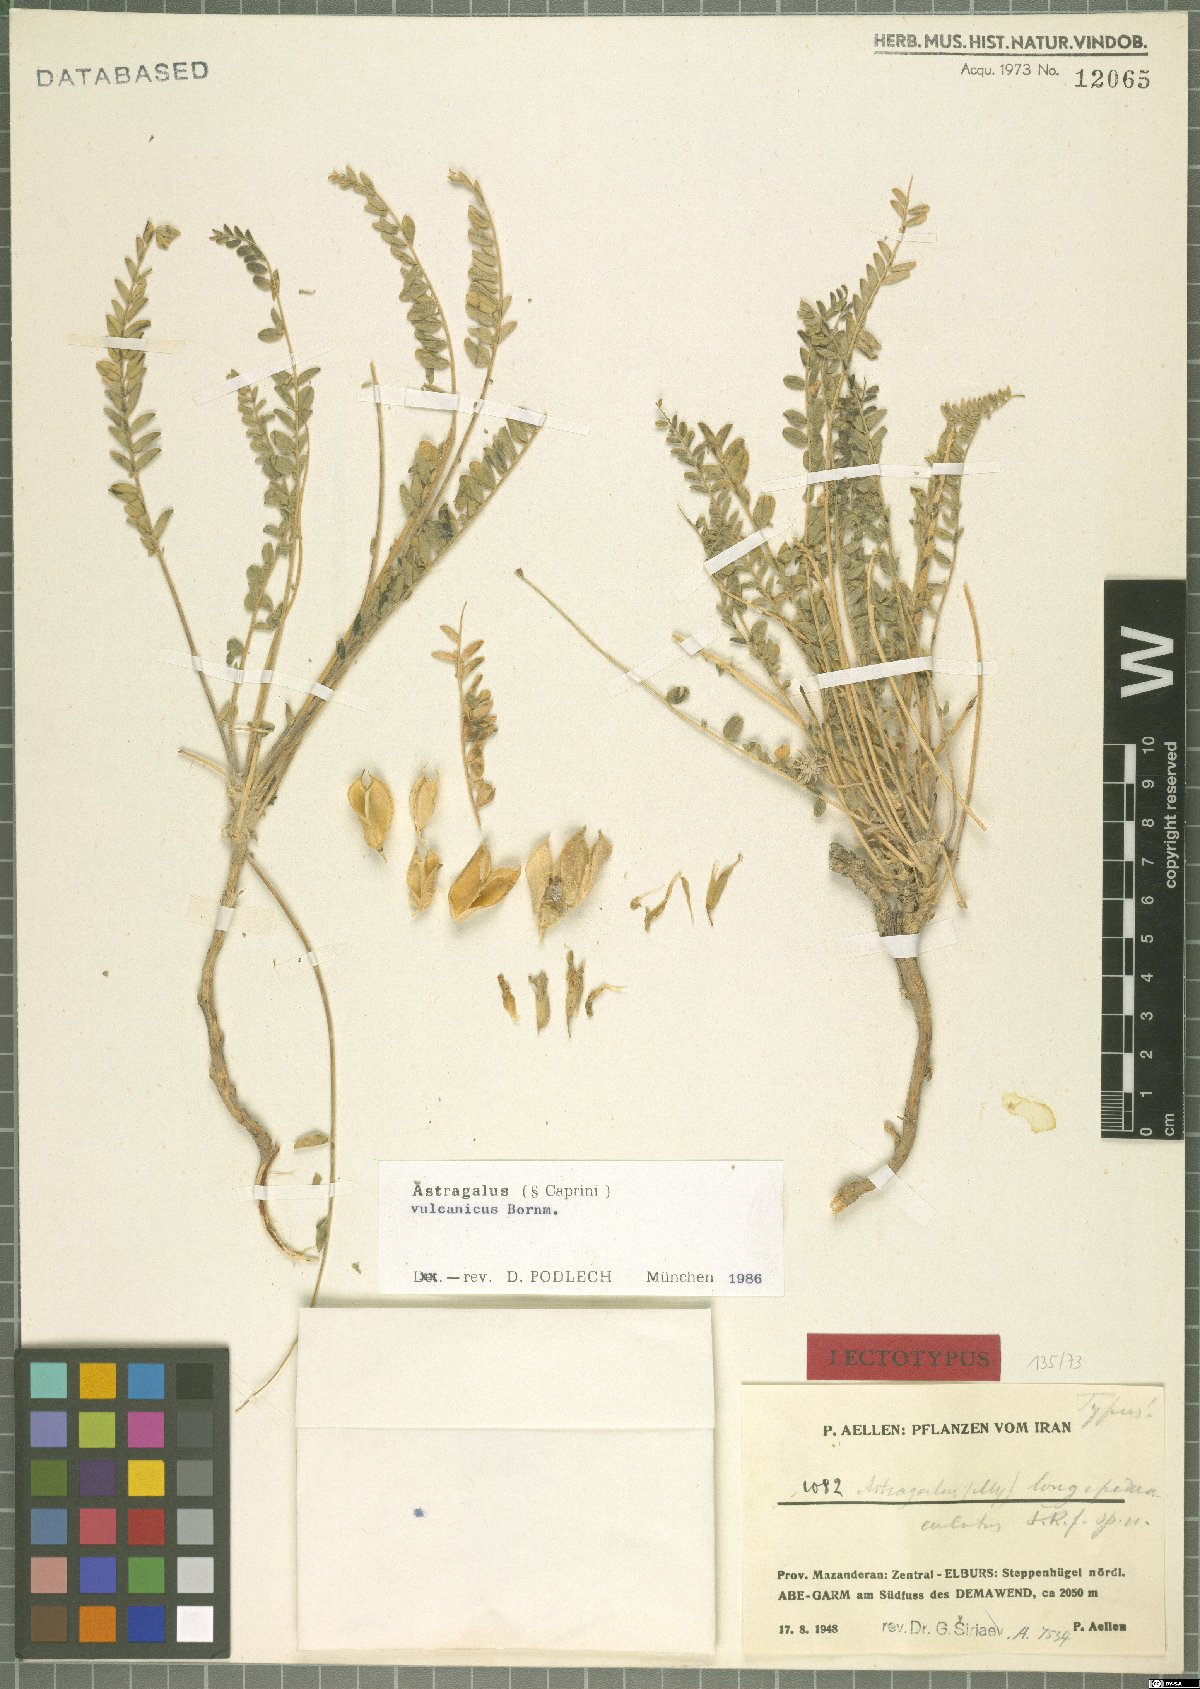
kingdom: Plantae
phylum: Tracheophyta
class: Magnoliopsida
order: Fabales
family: Fabaceae
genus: Astragalus
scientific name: Astragalus vulcanicus
